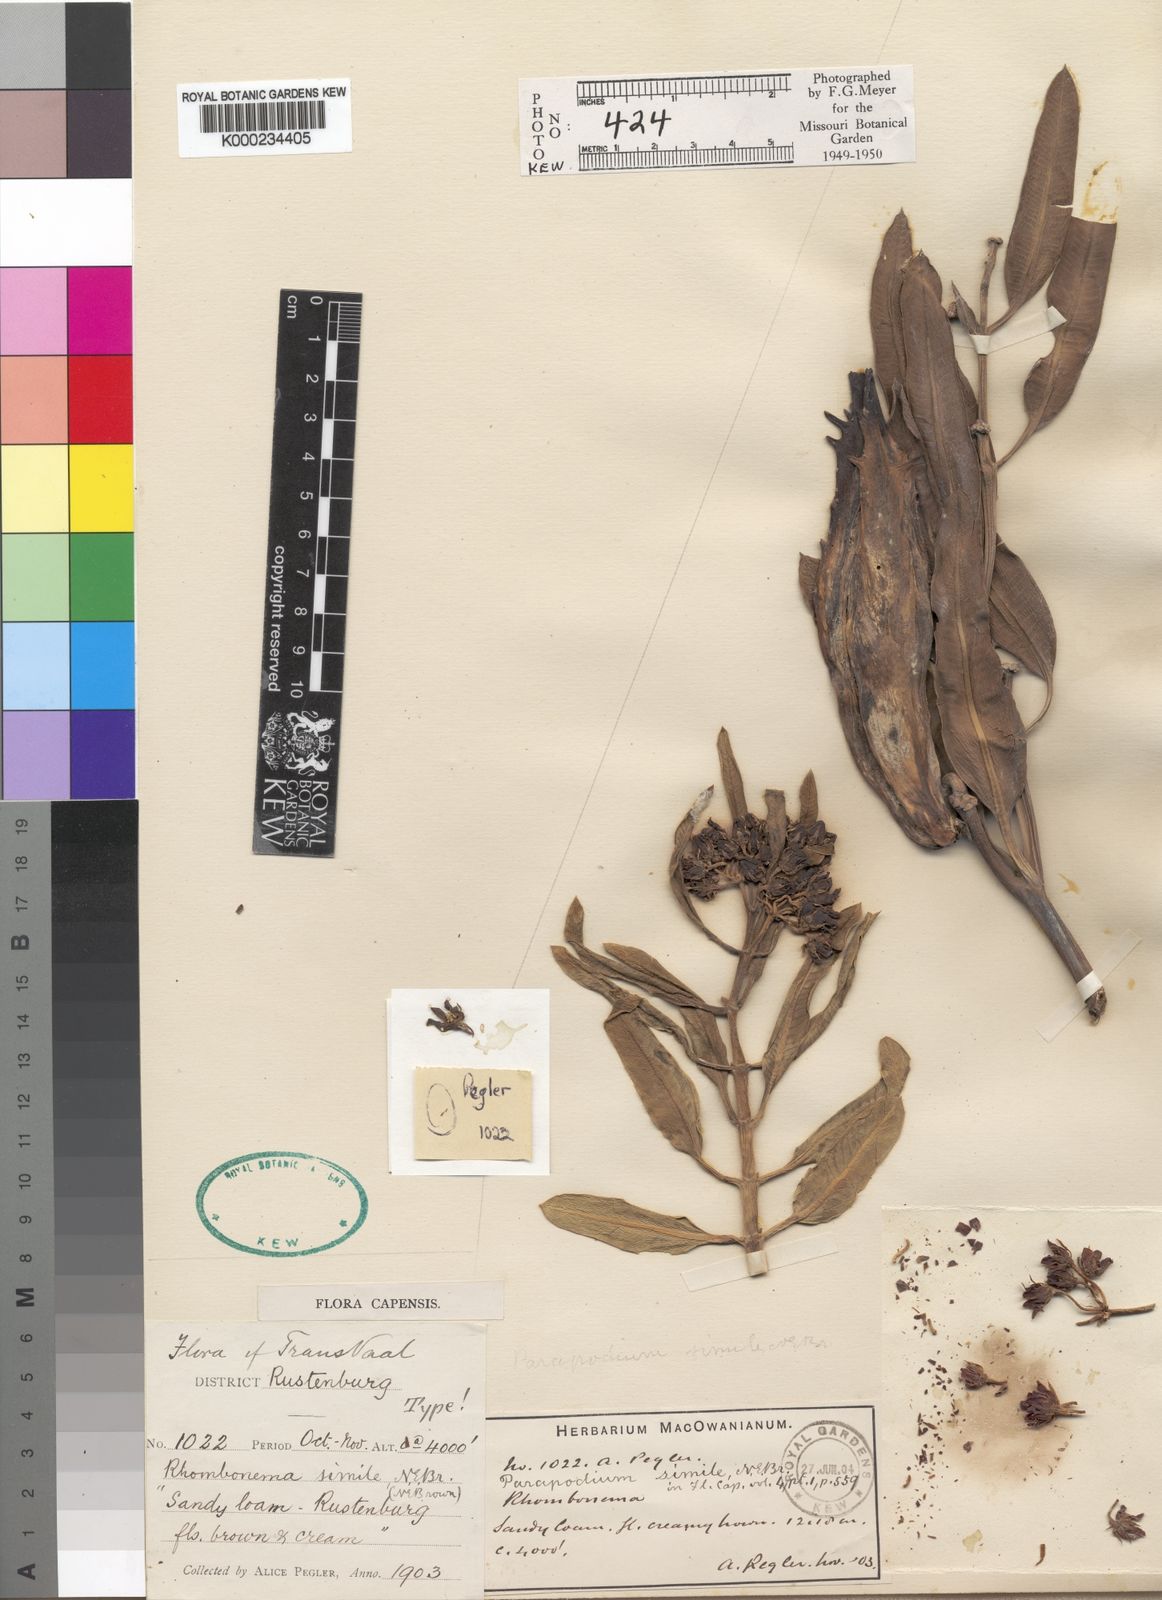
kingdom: Plantae
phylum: Tracheophyta
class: Magnoliopsida
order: Gentianales
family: Apocynaceae
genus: Parapodium
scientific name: Parapodium simile
